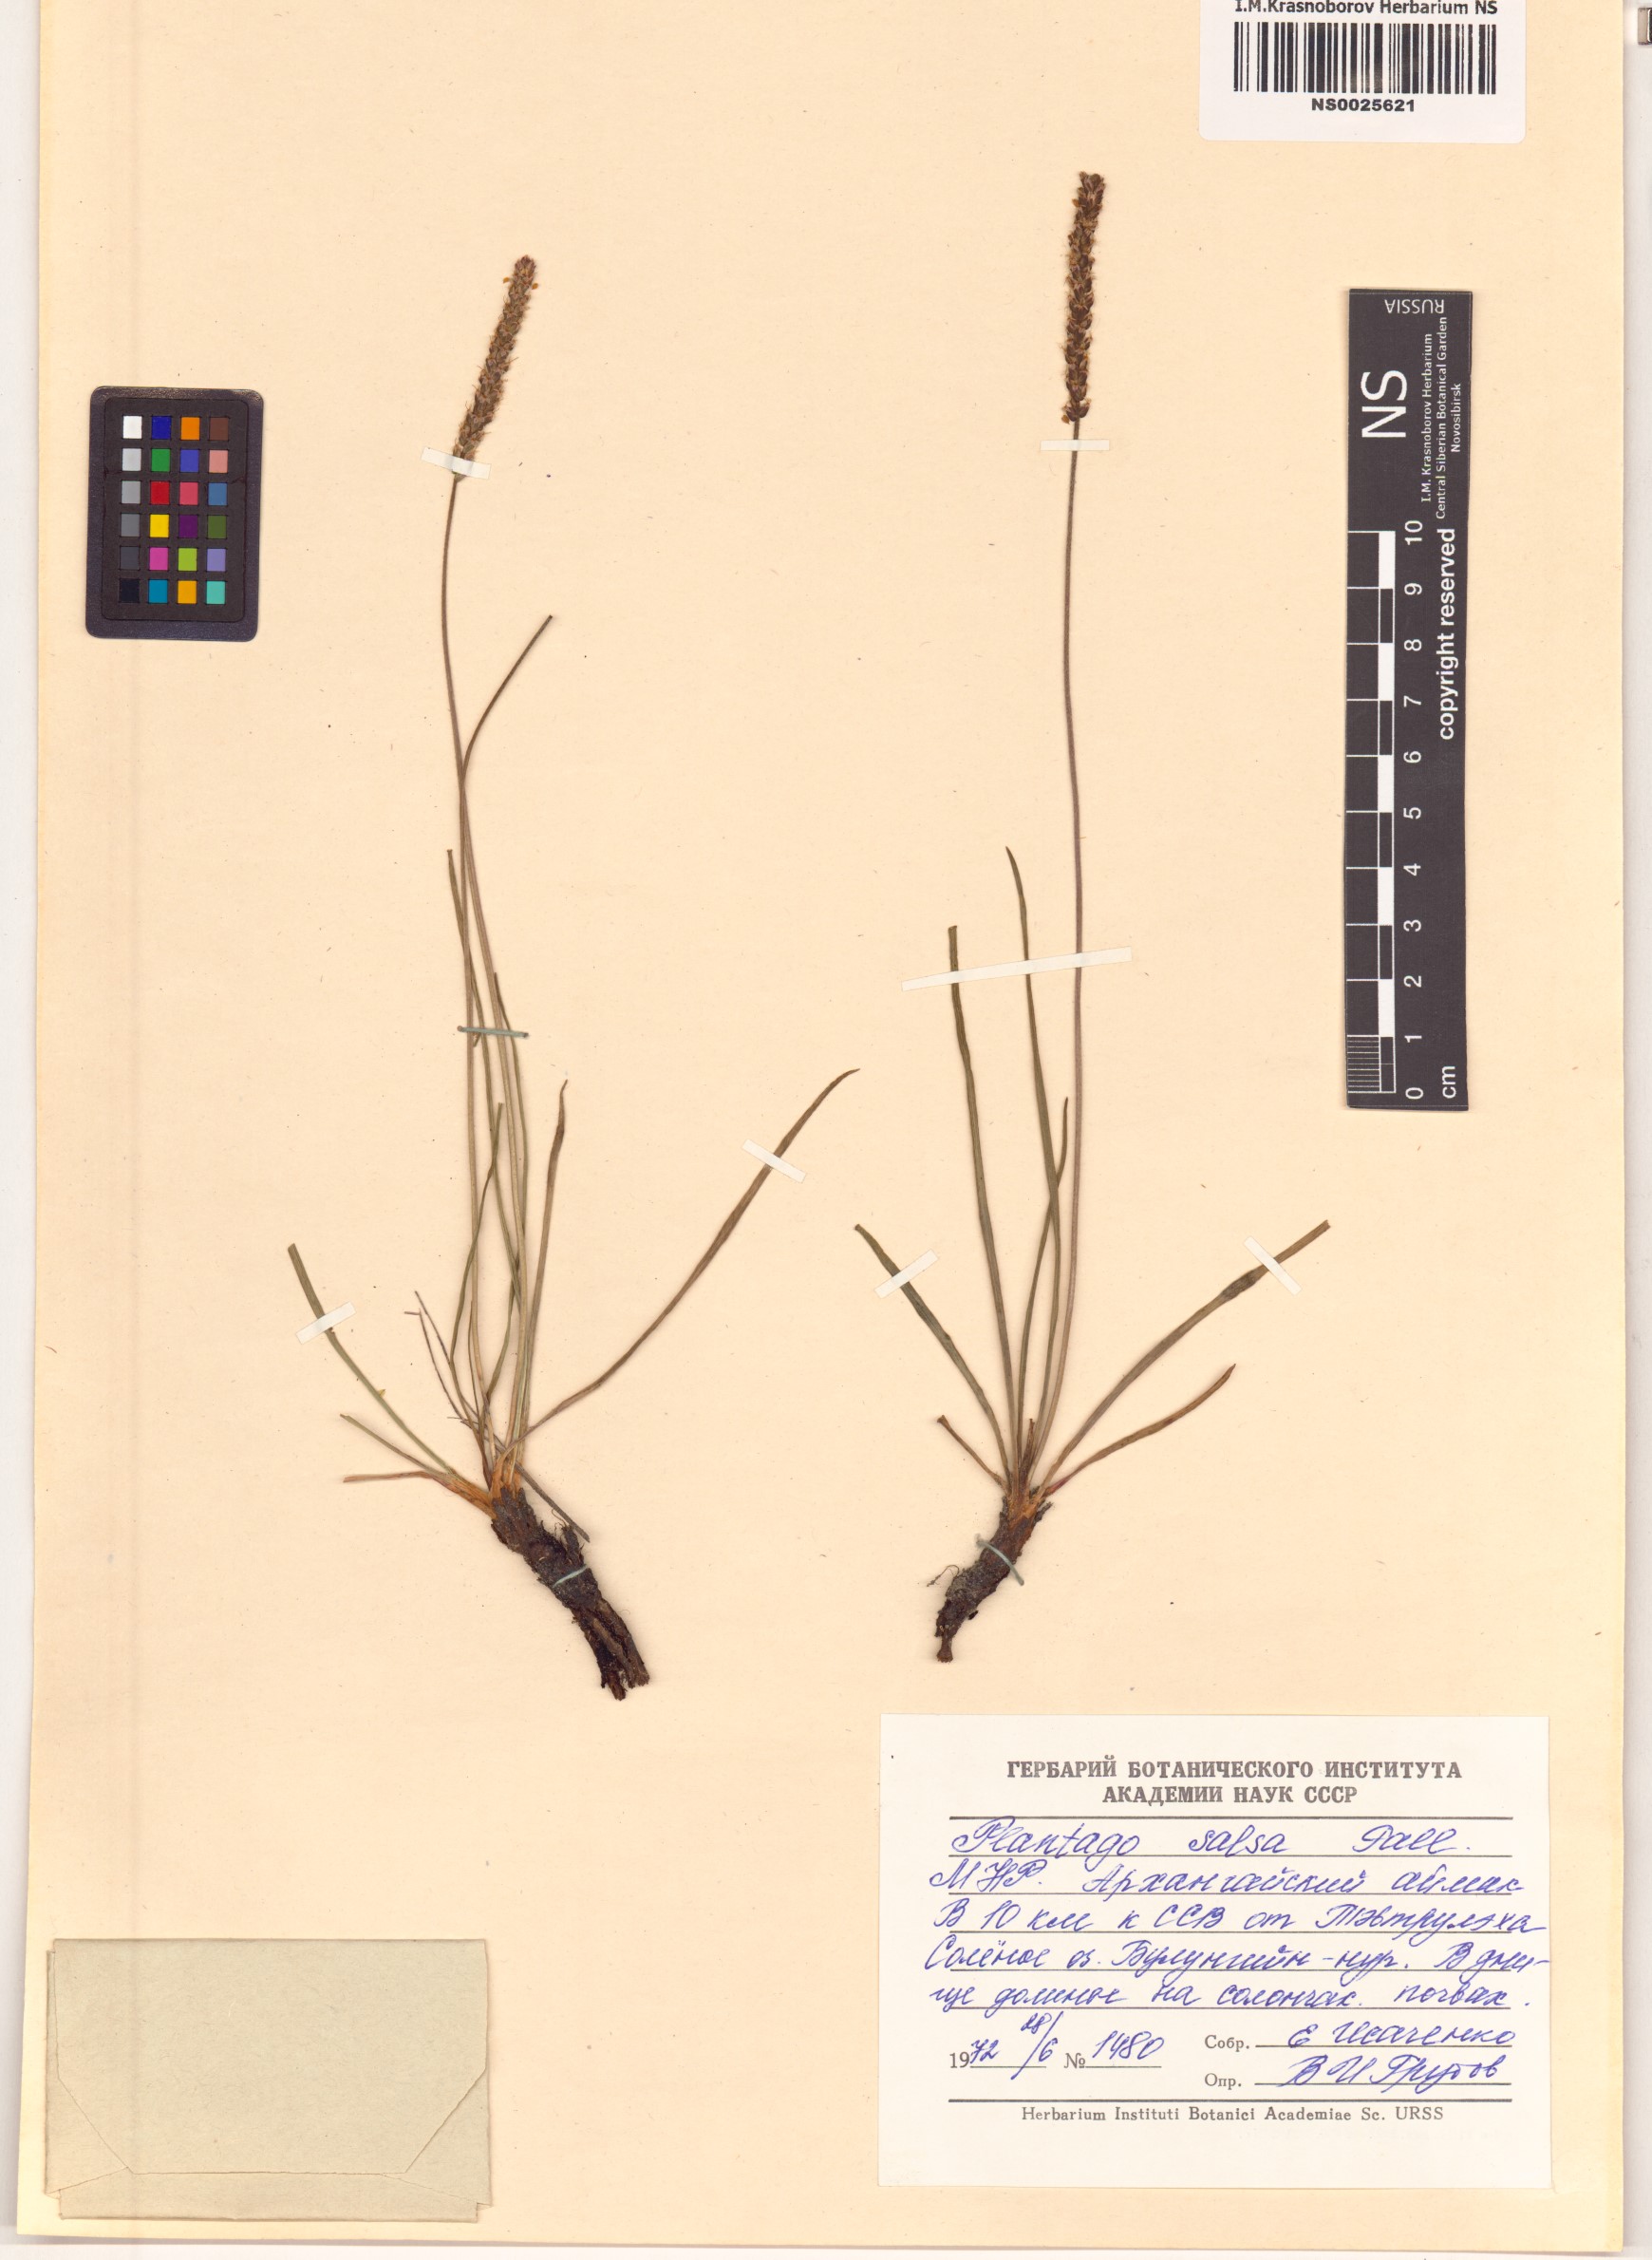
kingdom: Plantae
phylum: Tracheophyta
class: Magnoliopsida
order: Lamiales
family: Plantaginaceae
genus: Plantago
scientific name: Plantago salsa
